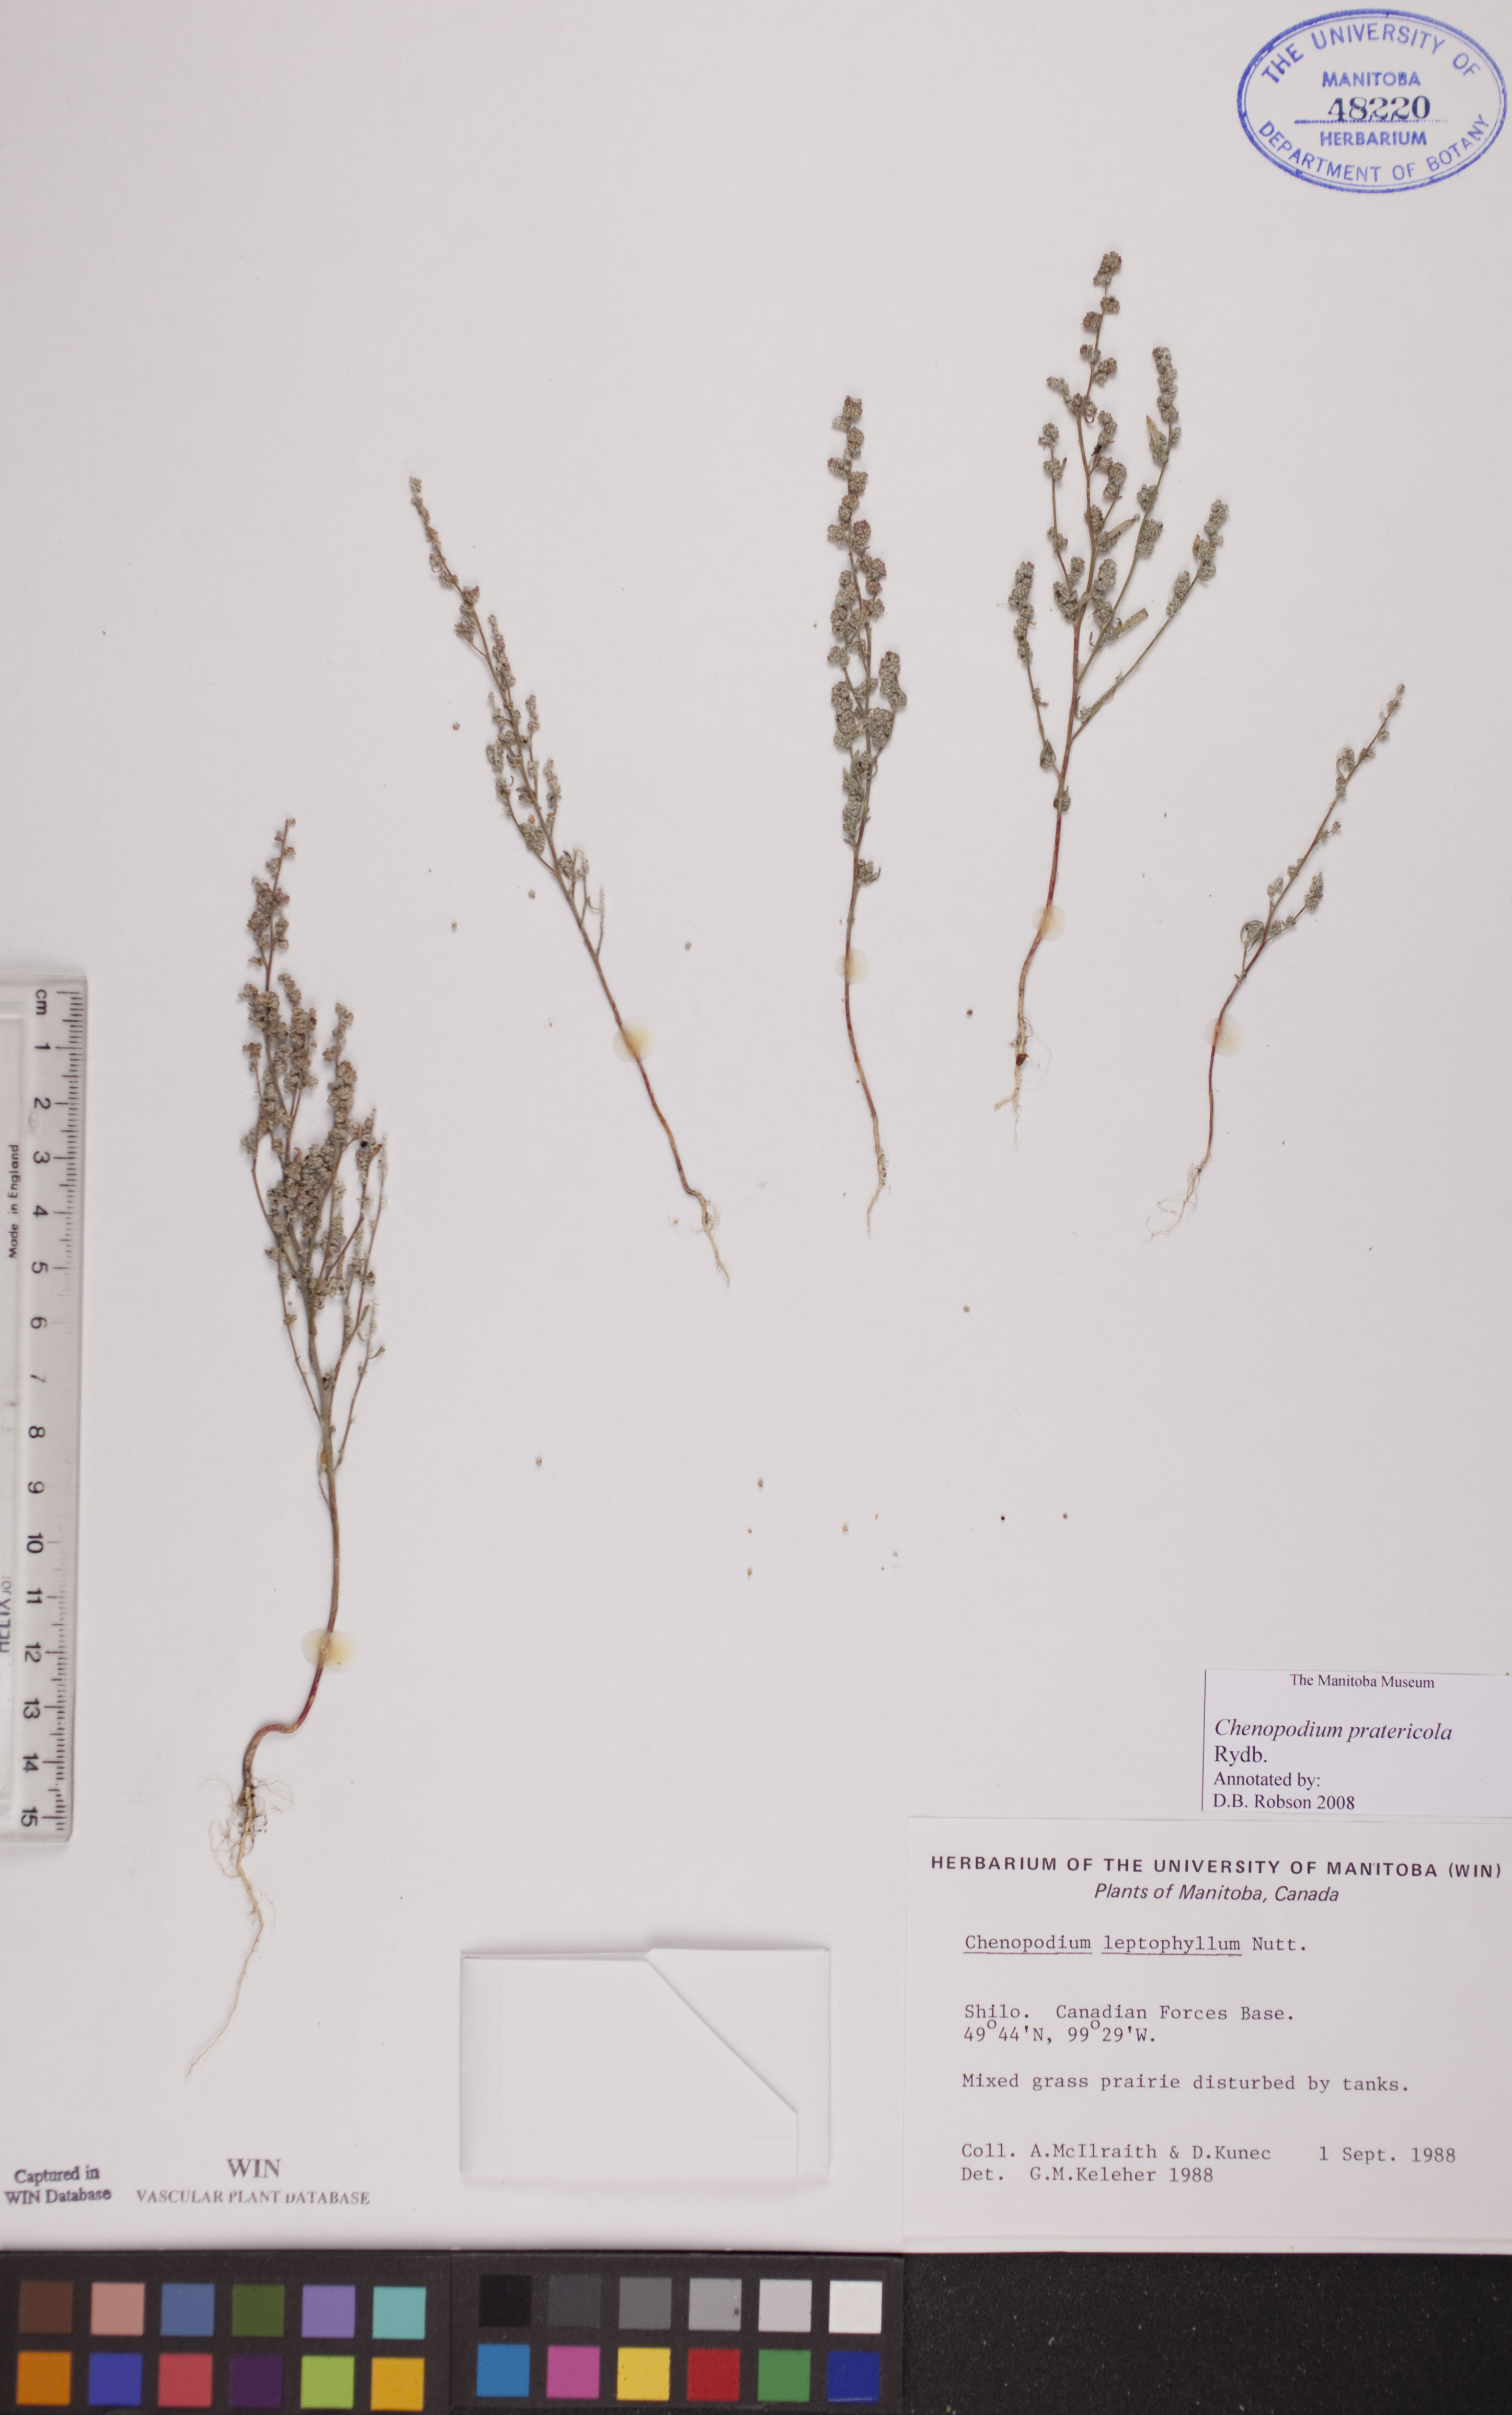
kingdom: Plantae
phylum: Tracheophyta
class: Magnoliopsida
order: Caryophyllales
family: Amaranthaceae
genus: Chenopodium
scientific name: Chenopodium pratericola
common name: Desert goosefoot
